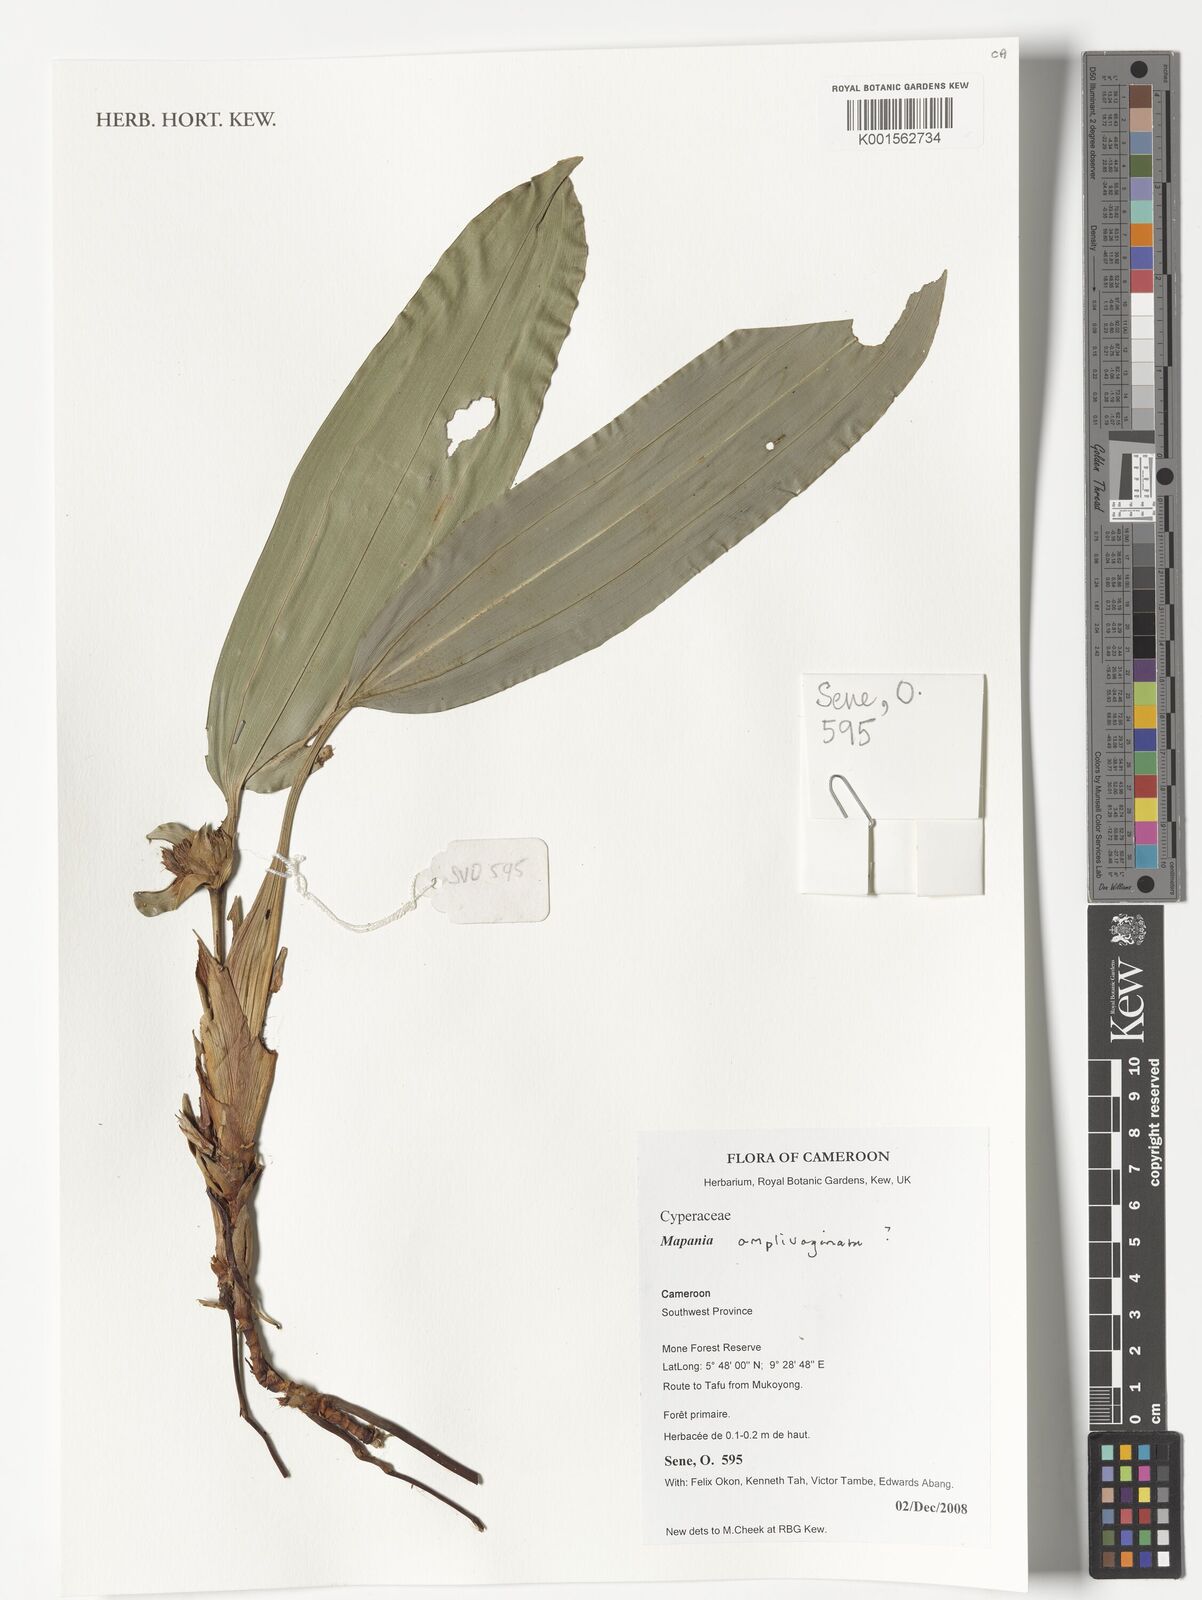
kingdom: Plantae
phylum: Tracheophyta
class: Liliopsida
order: Poales
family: Cyperaceae
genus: Mapania
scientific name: Mapania amplivaginata
